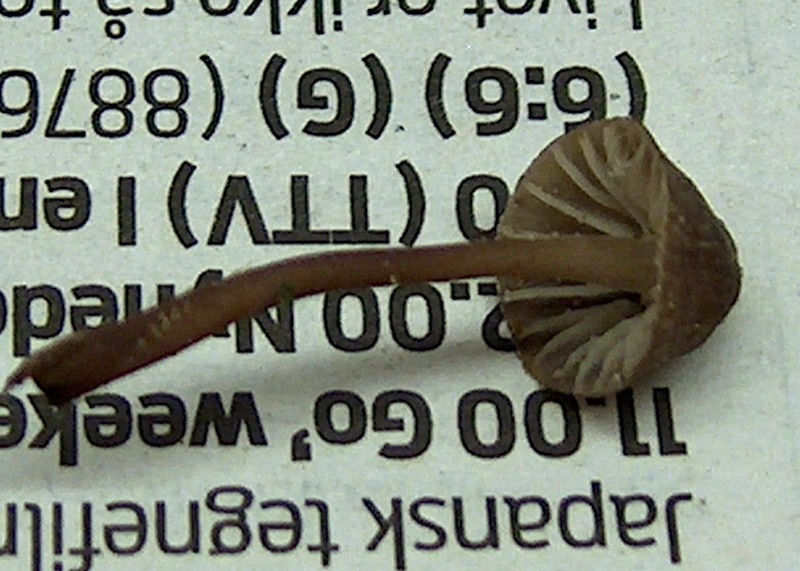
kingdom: Fungi
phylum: Basidiomycota
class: Agaricomycetes
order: Agaricales
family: Mycenaceae
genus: Mycena
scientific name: Mycena galopus
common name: hvidmælket huesvamp
